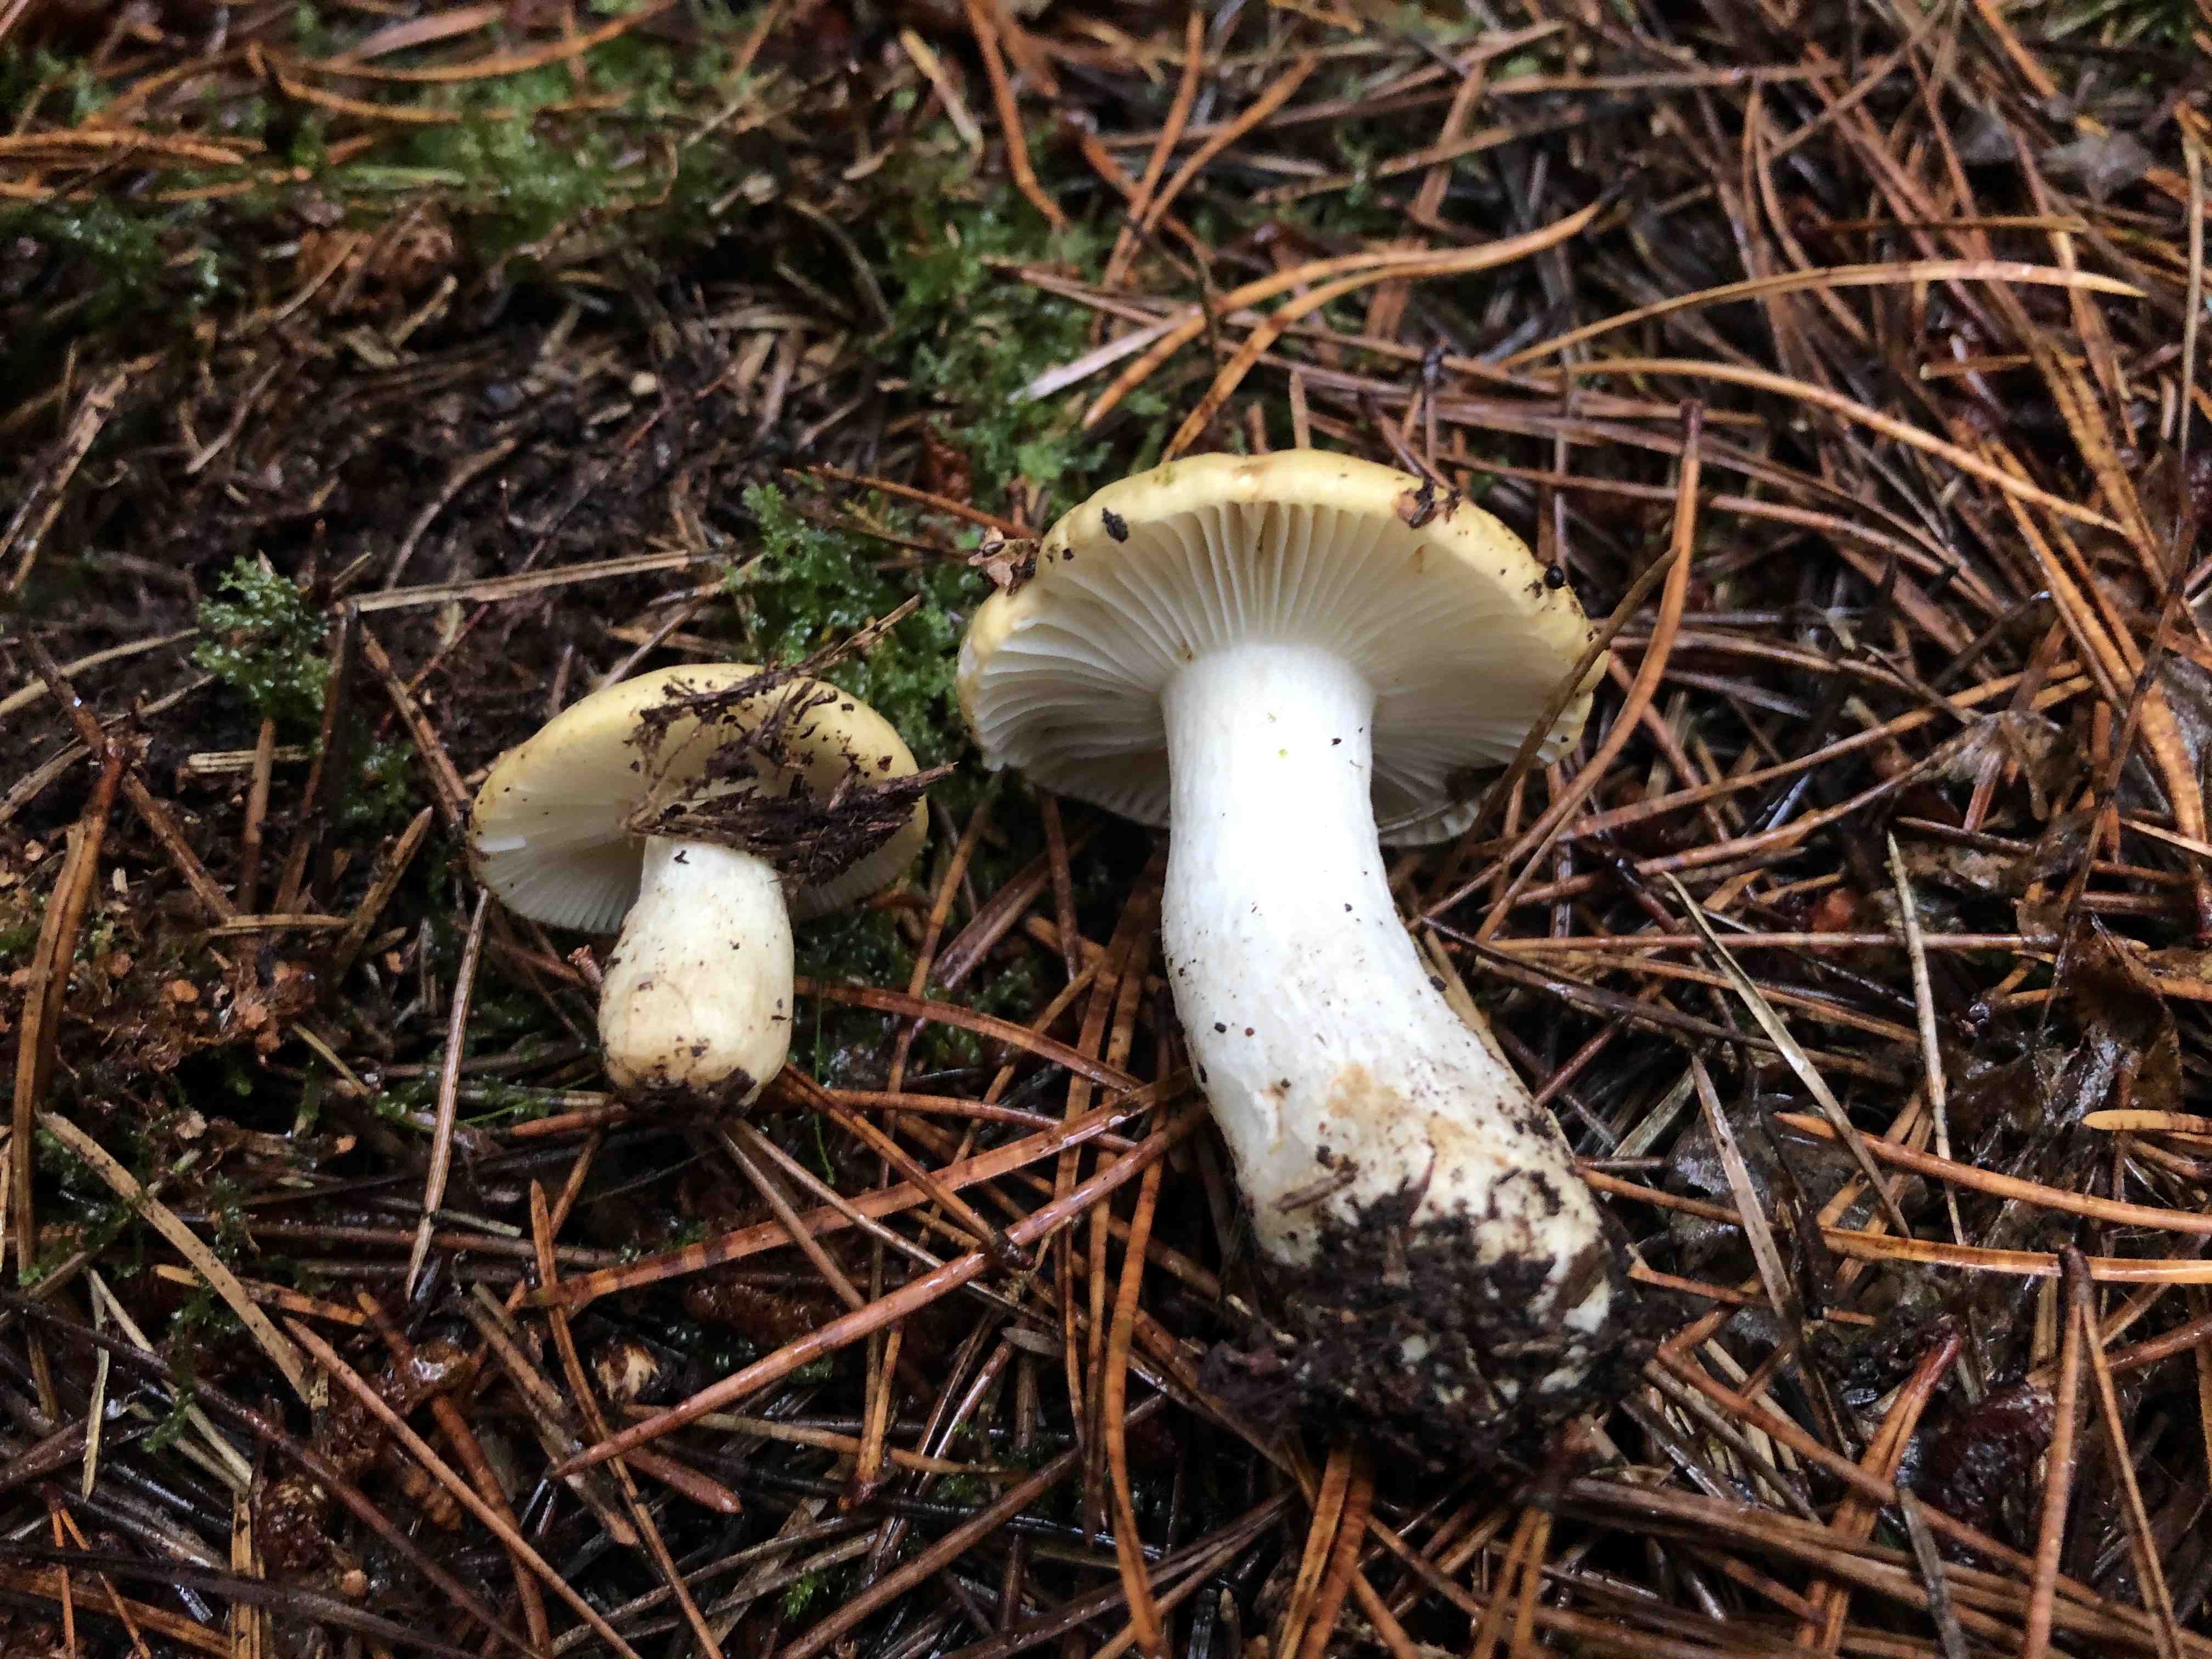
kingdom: Fungi
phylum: Basidiomycota
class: Agaricomycetes
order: Russulales
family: Russulaceae
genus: Russula
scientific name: Russula ochroleuca
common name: okkergul skørhat
